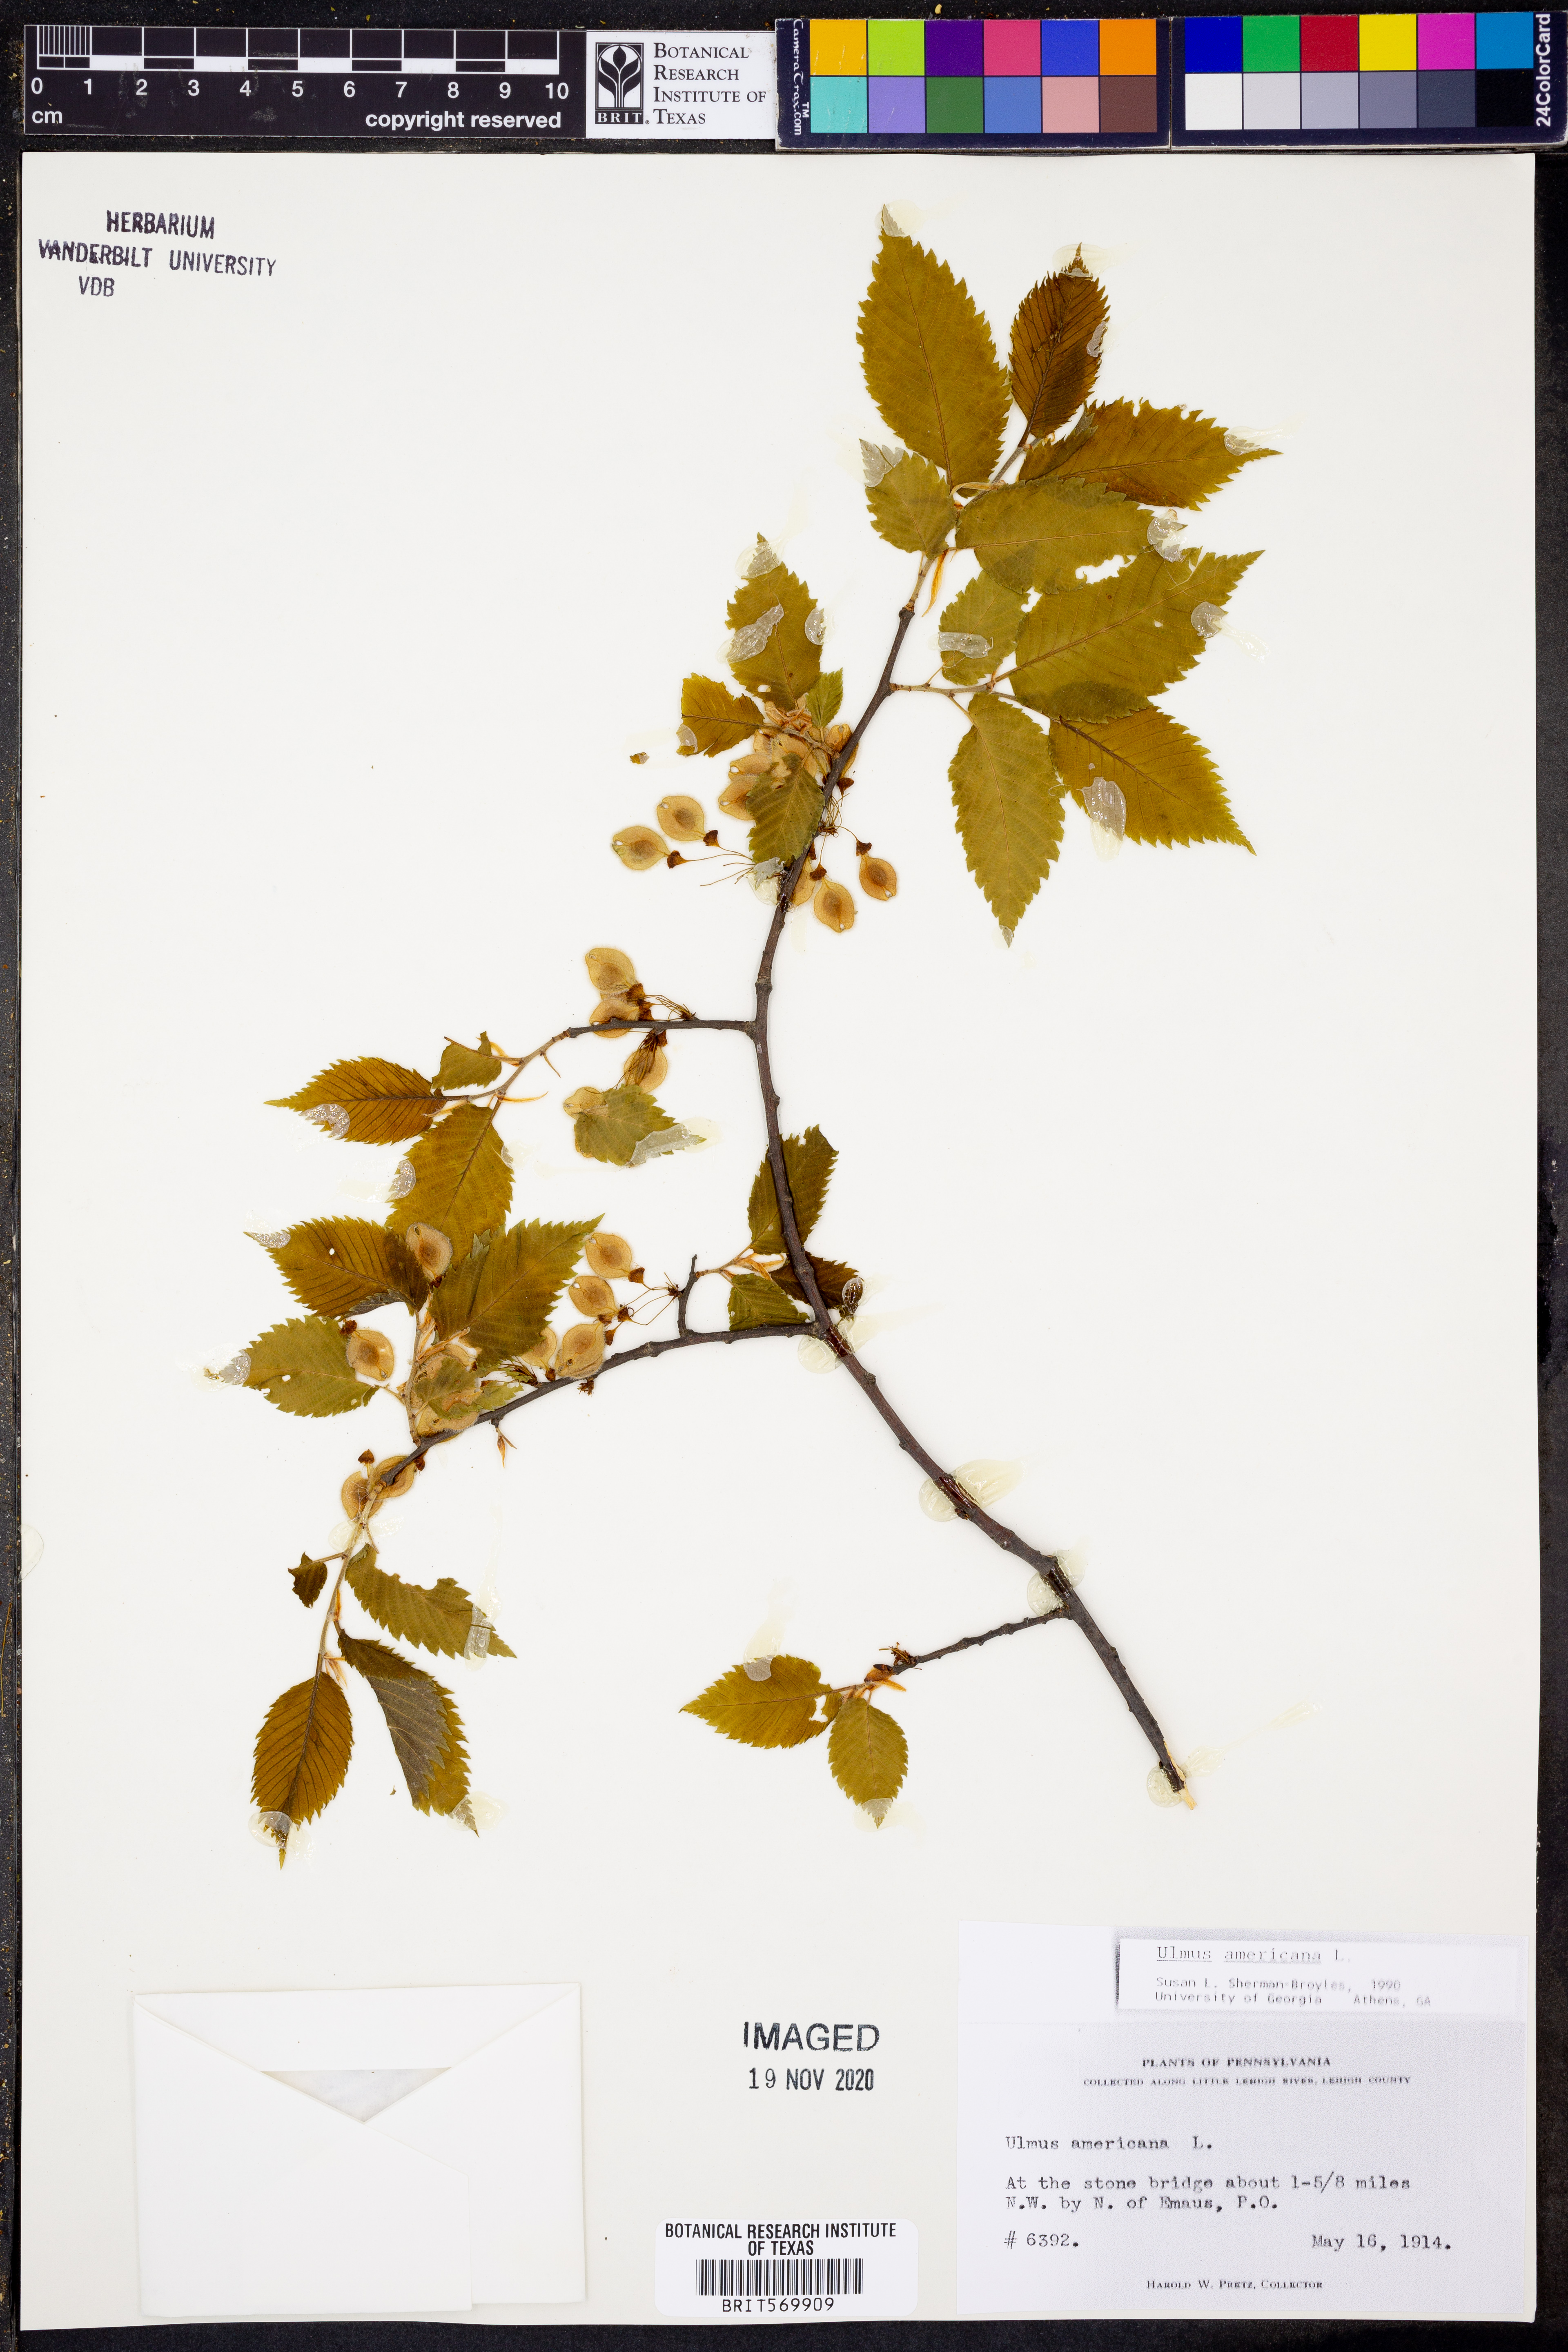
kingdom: Plantae
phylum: Tracheophyta
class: Magnoliopsida
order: Rosales
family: Ulmaceae
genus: Ulmus
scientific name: Ulmus americana
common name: American elm
